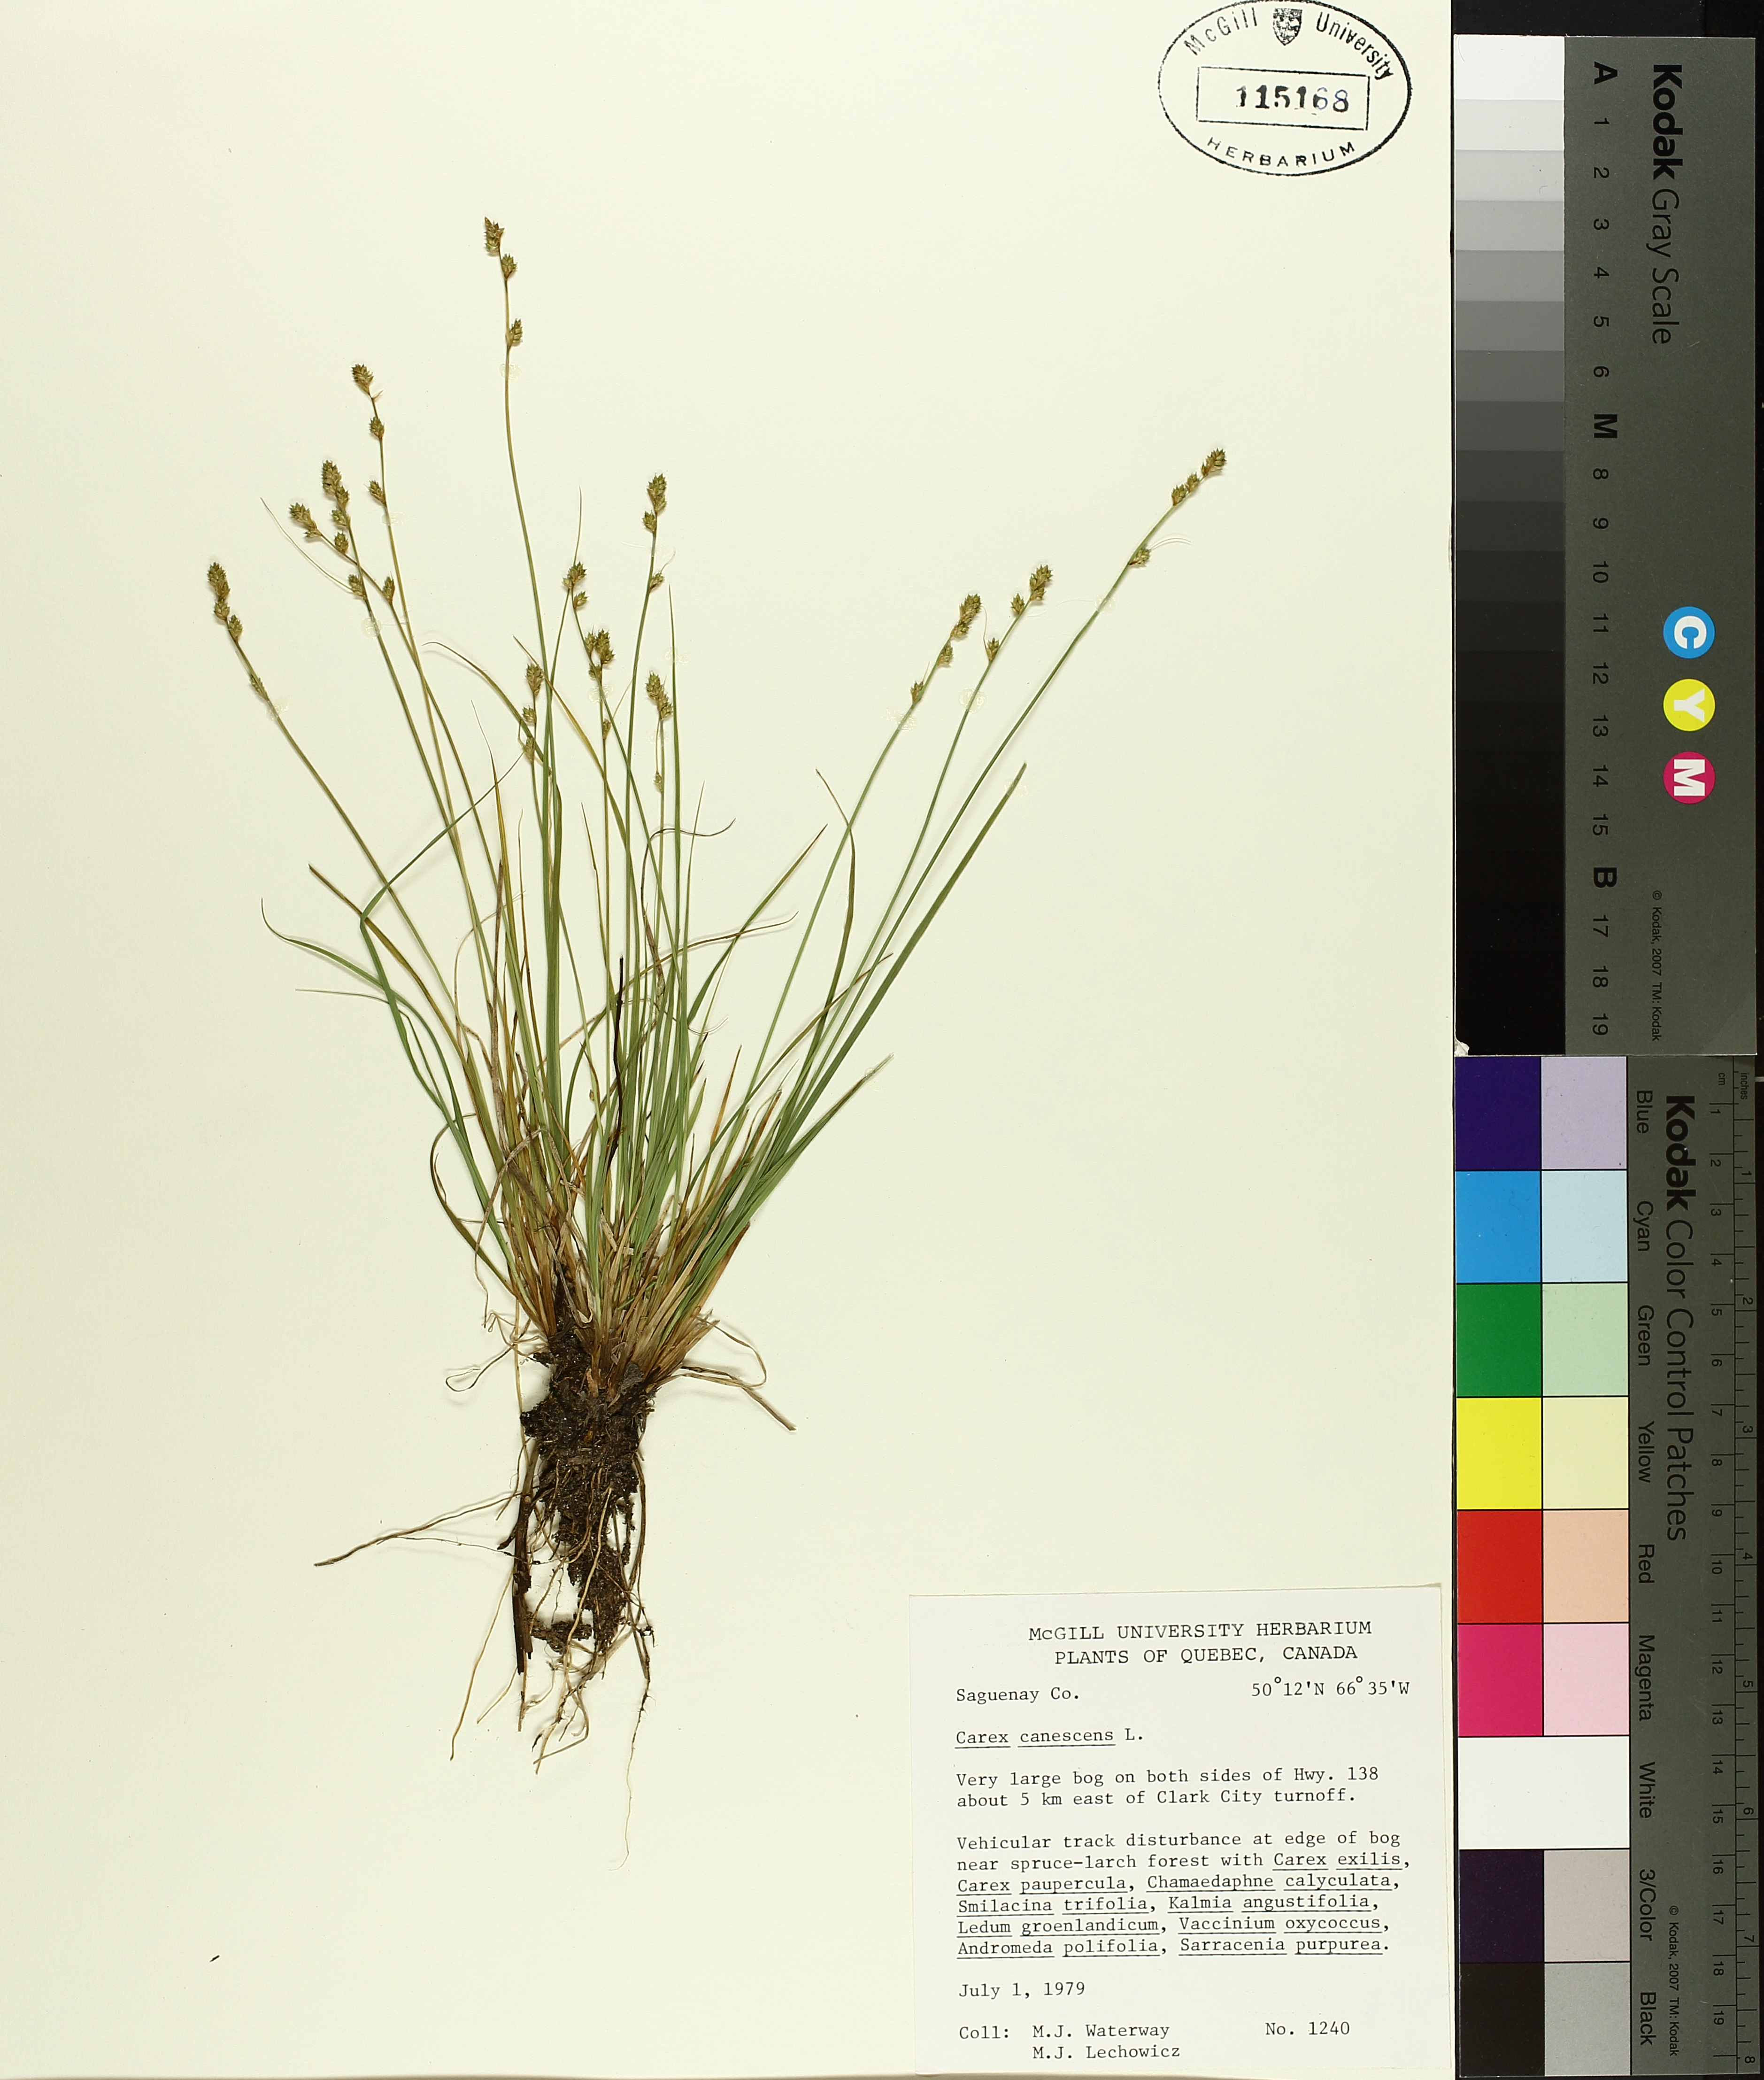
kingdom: Plantae
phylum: Tracheophyta
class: Liliopsida
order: Poales
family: Cyperaceae
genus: Carex
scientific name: Carex canescens
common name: White sedge
